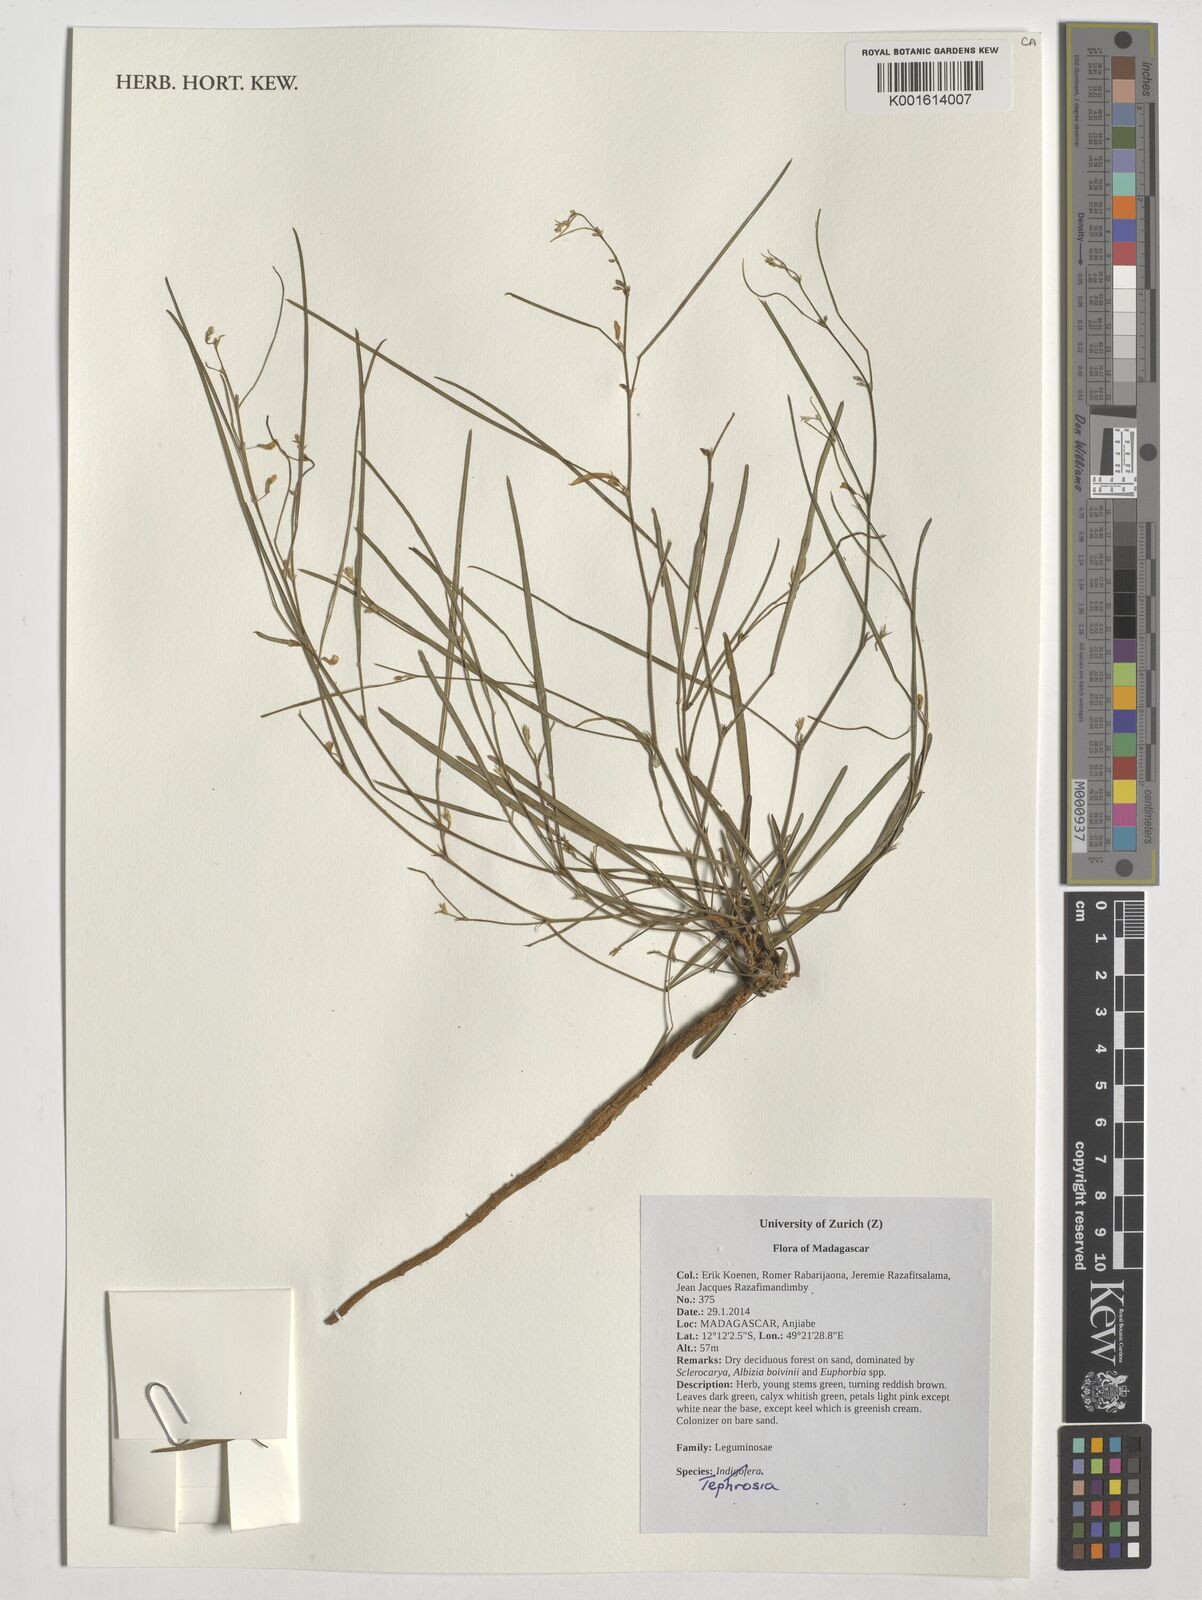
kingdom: Plantae
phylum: Tracheophyta
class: Magnoliopsida
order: Fabales
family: Fabaceae
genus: Tephrosia
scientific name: Tephrosia
